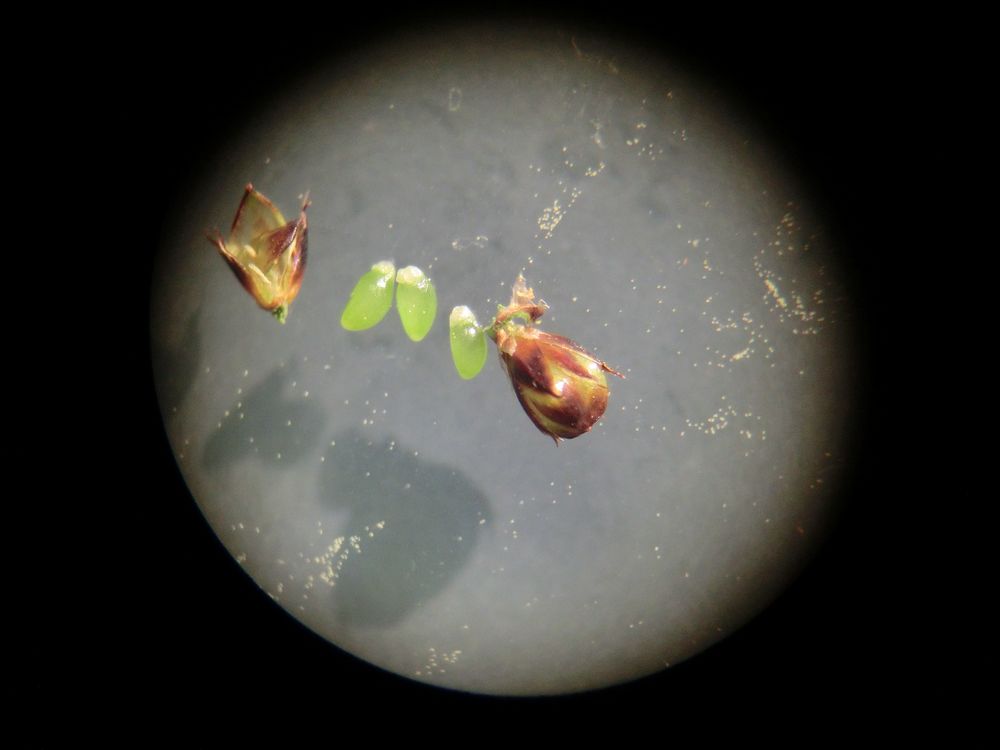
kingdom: Plantae
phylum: Tracheophyta
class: Liliopsida
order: Poales
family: Juncaceae
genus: Luzula
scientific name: Luzula multiflora
